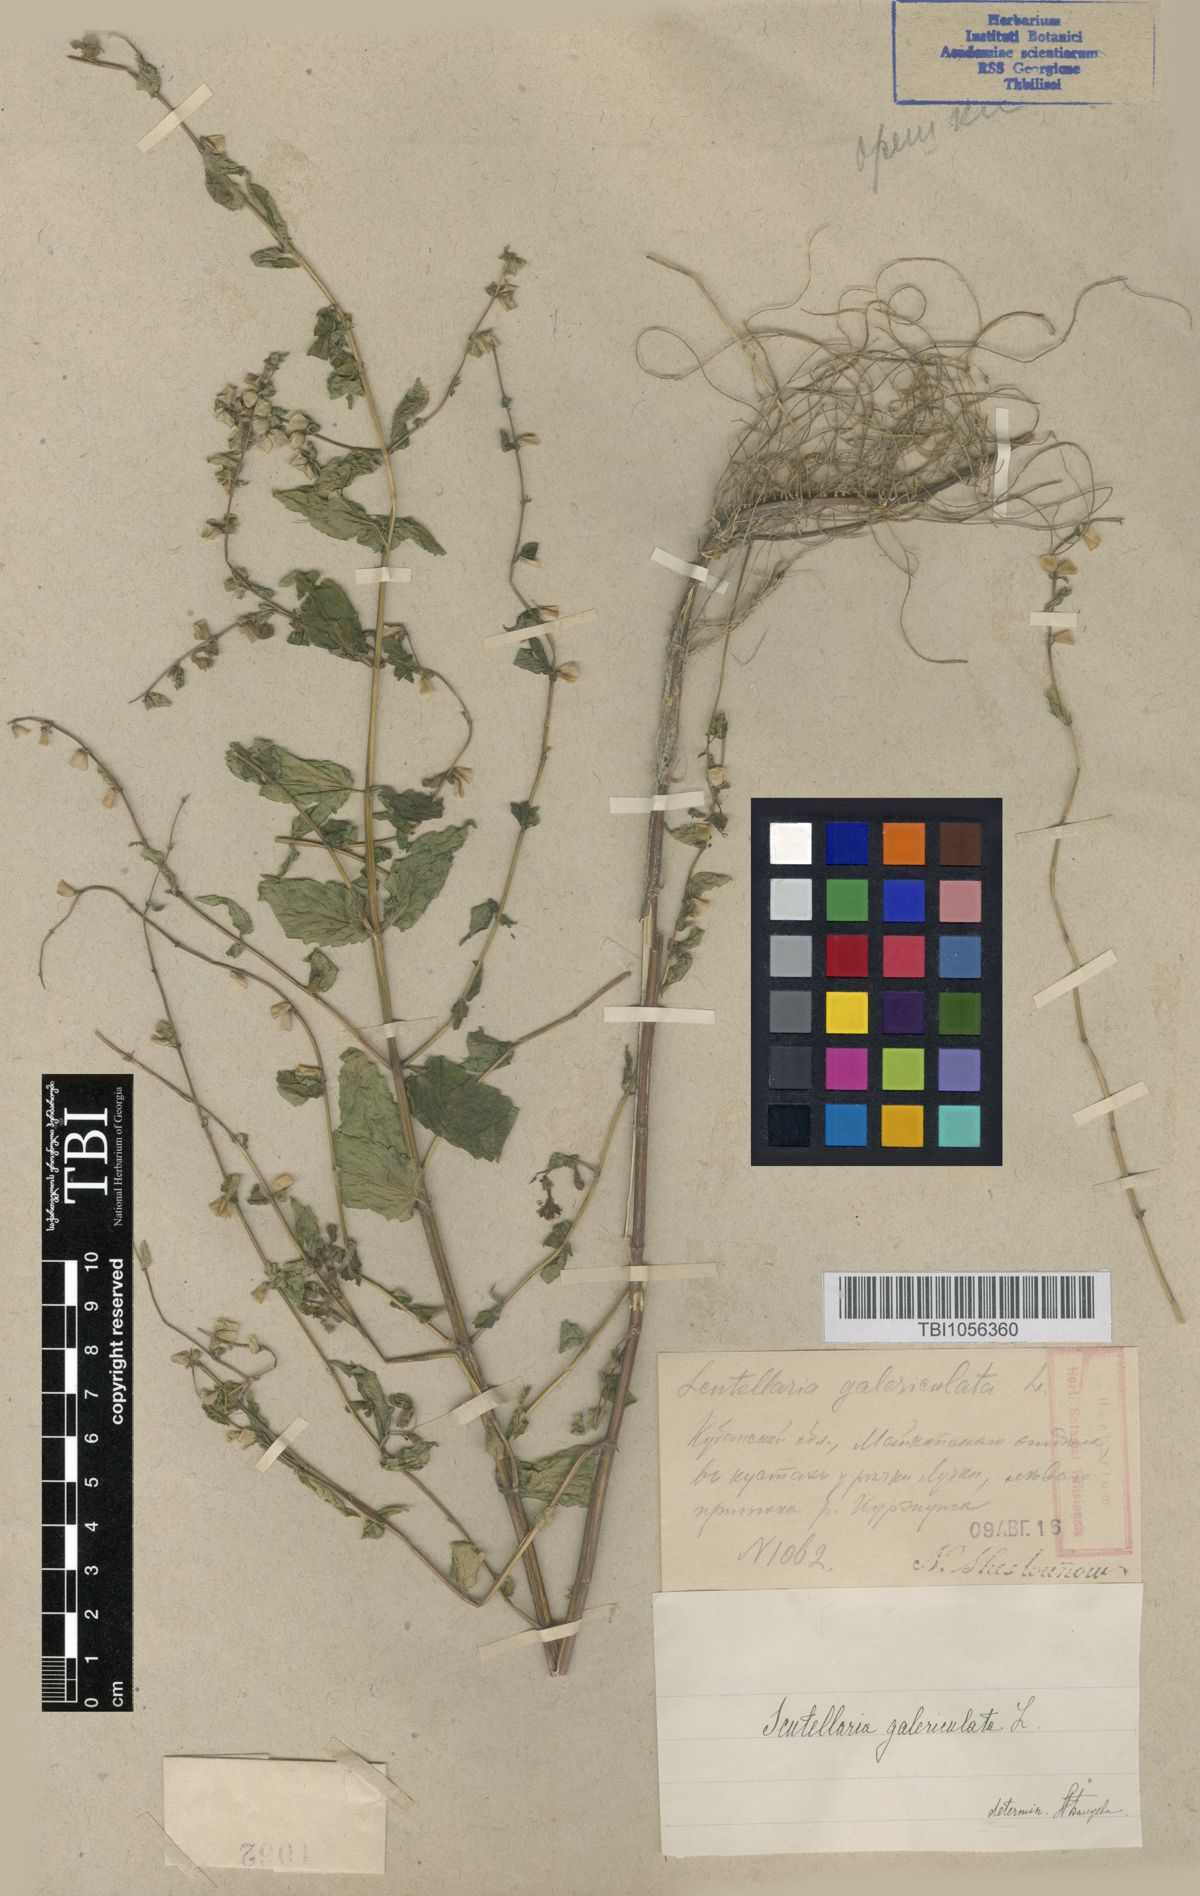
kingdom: Plantae
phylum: Tracheophyta
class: Magnoliopsida
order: Lamiales
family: Lamiaceae
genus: Scutellaria
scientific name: Scutellaria galericulata
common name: Skullcap
